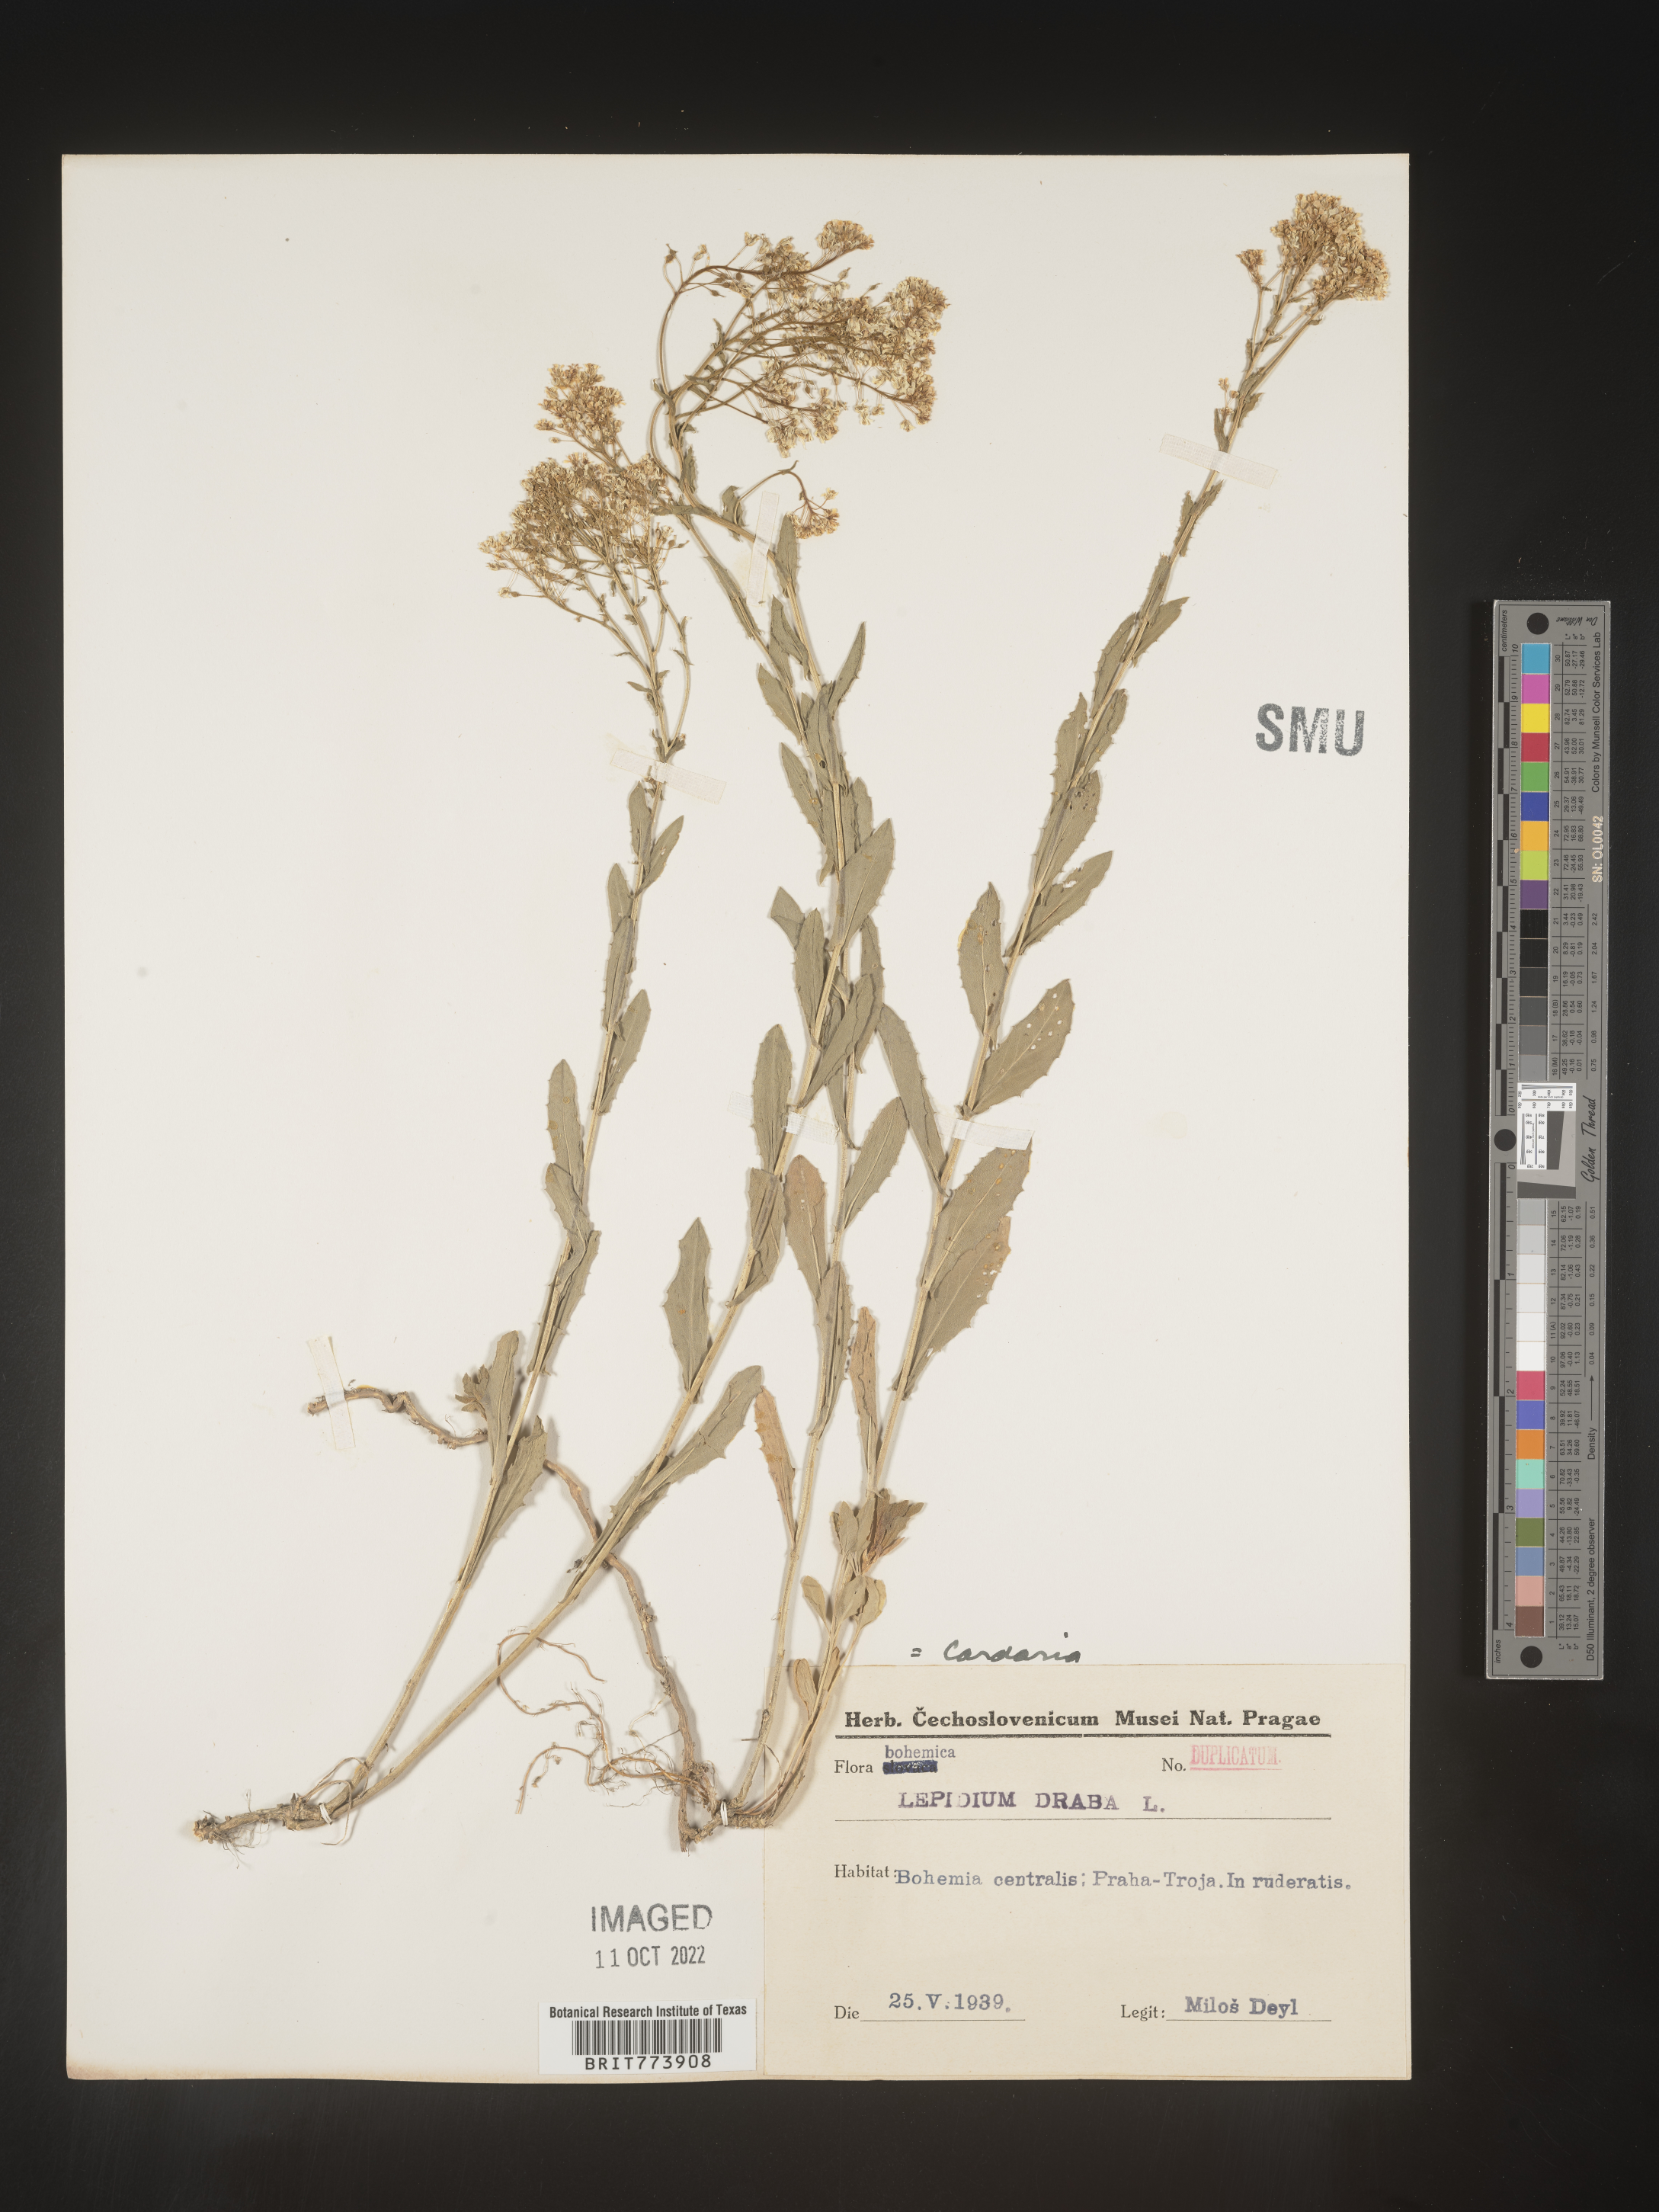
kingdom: Plantae
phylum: Tracheophyta
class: Magnoliopsida
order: Brassicales
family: Brassicaceae
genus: Lepidium
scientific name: Lepidium
